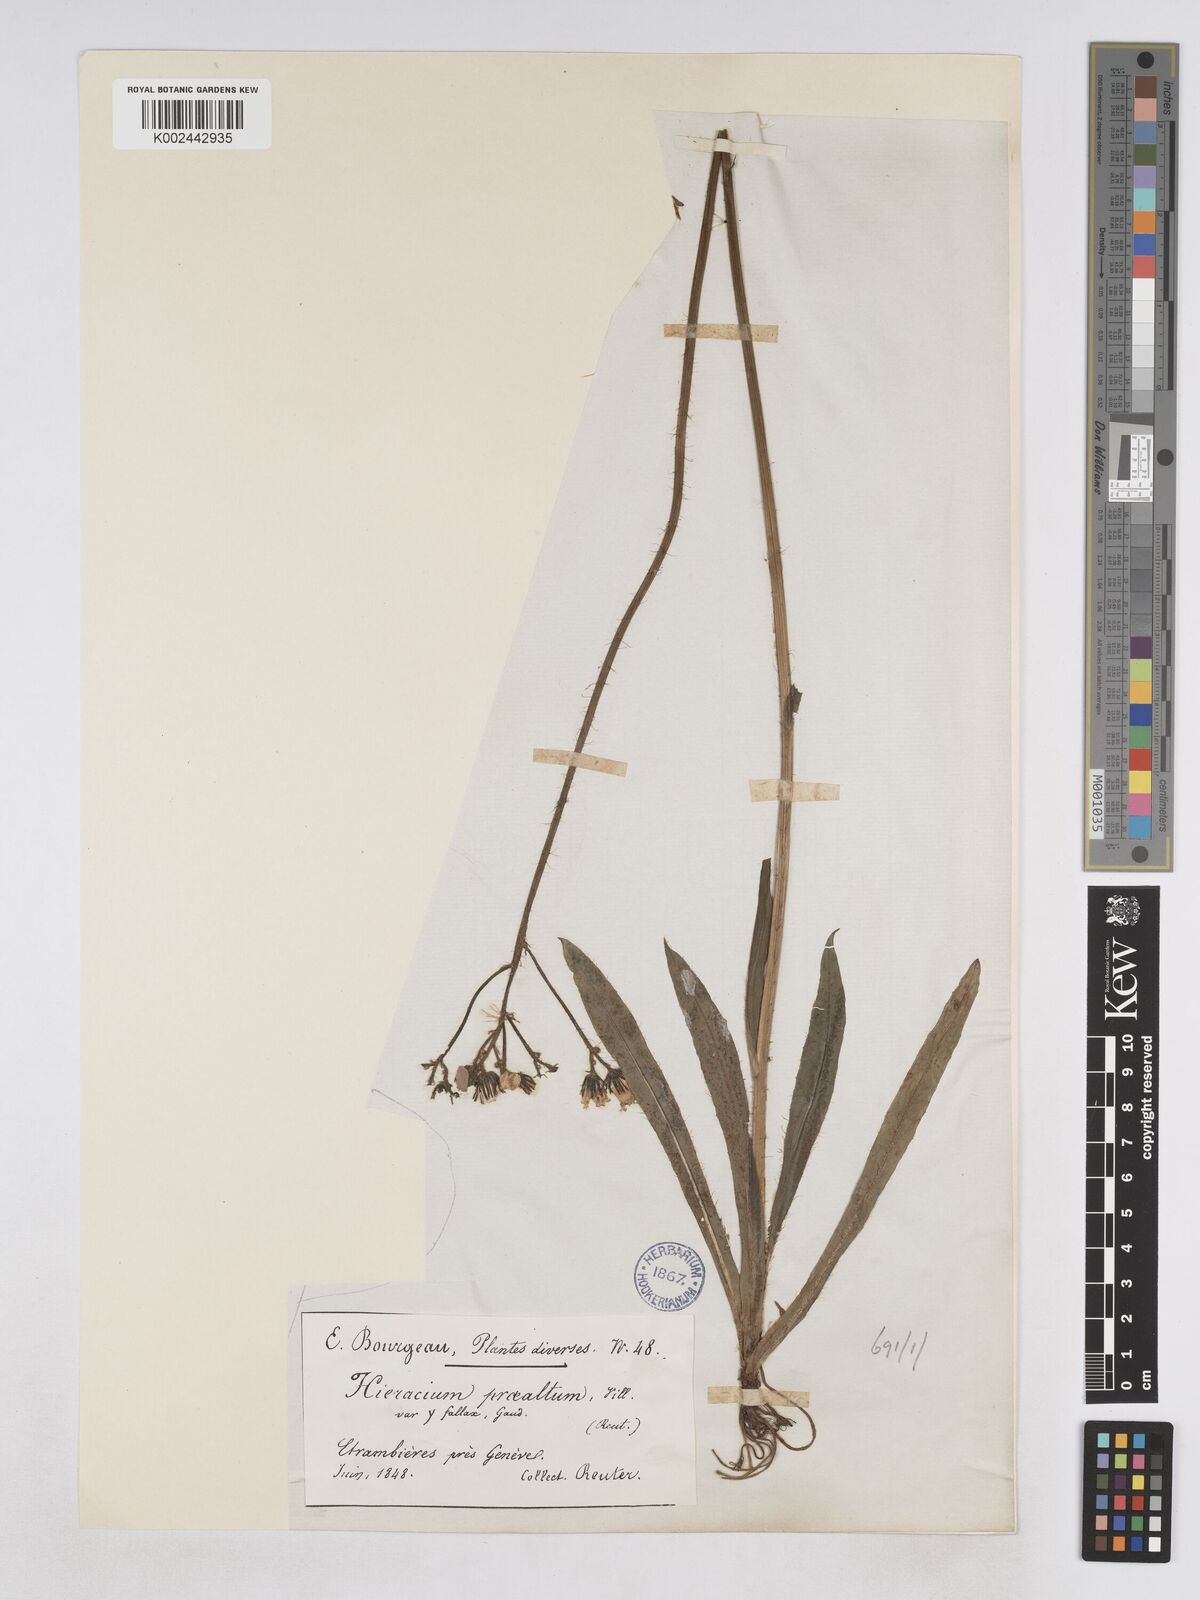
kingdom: Plantae
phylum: Tracheophyta
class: Magnoliopsida
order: Asterales
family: Asteraceae
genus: Pilosella
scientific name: Pilosella fallax
